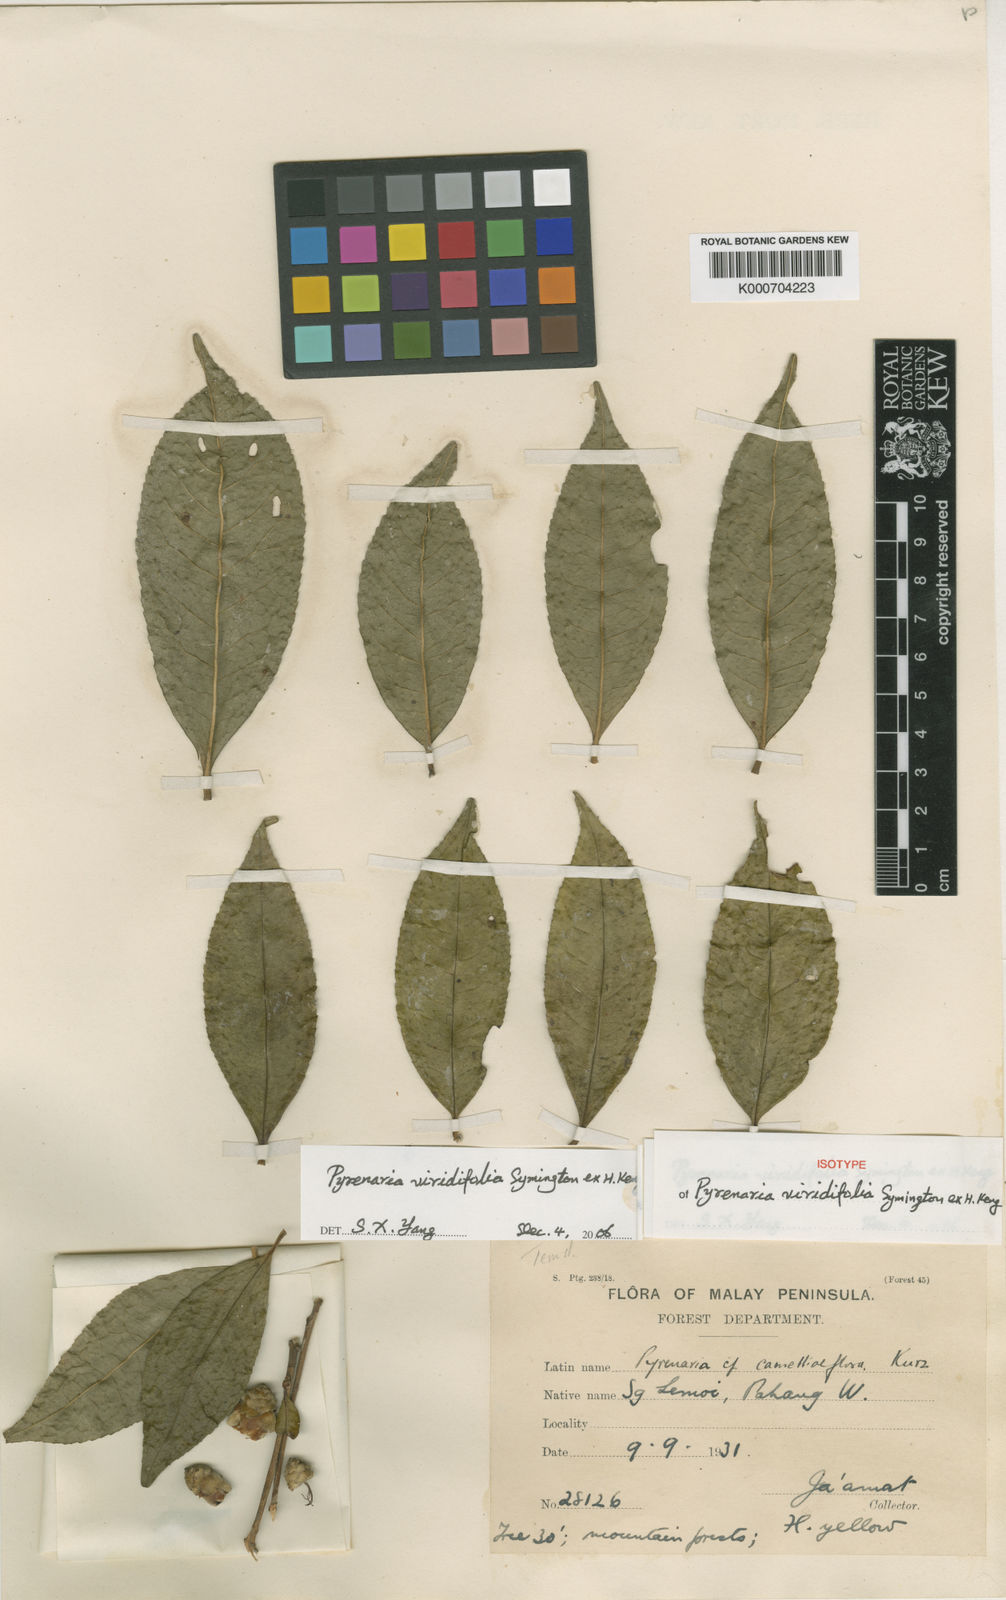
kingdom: Plantae
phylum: Tracheophyta
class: Magnoliopsida
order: Ericales
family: Theaceae
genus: Pyrenaria
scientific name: Pyrenaria viridifolia
